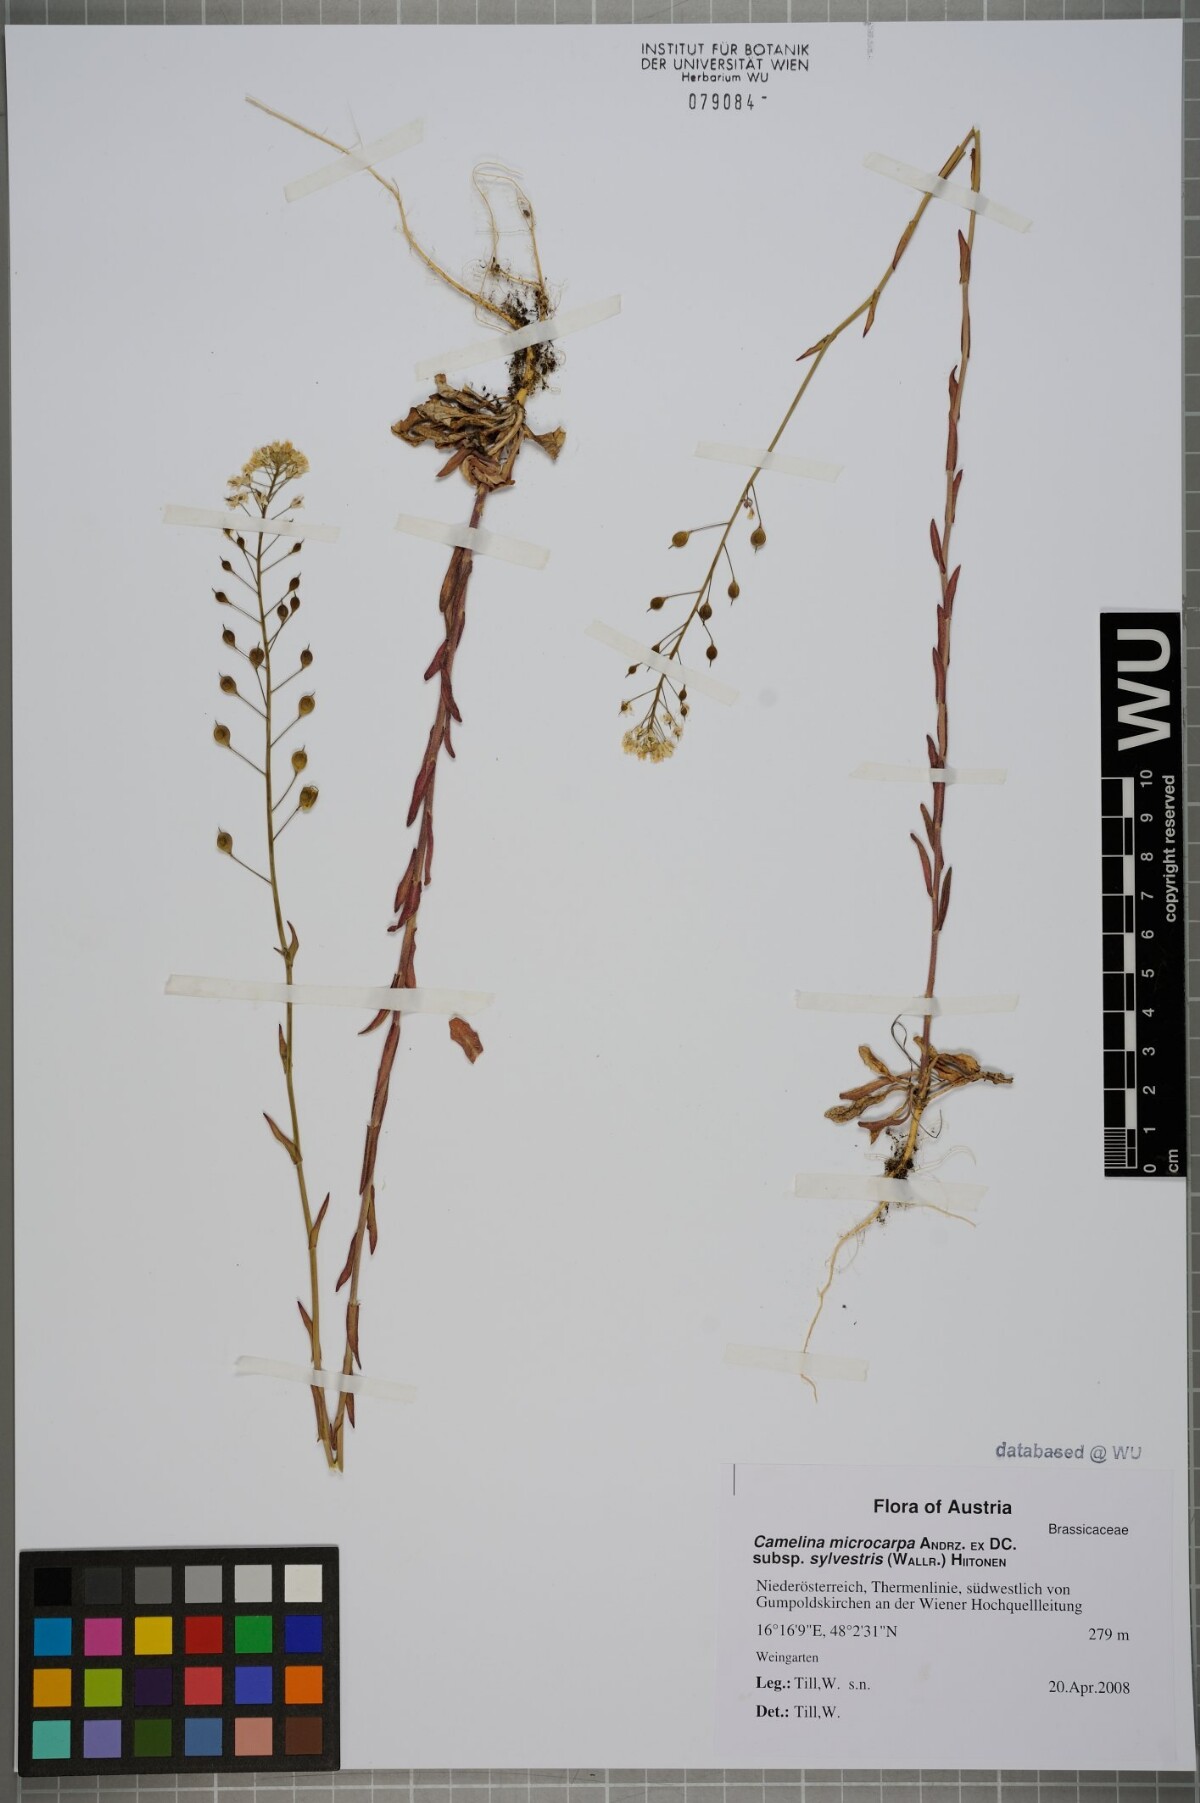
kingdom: Plantae
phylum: Tracheophyta
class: Magnoliopsida
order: Brassicales
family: Brassicaceae
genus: Camelina
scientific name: Camelina microcarpa
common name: Lesser gold-of-pleasure
